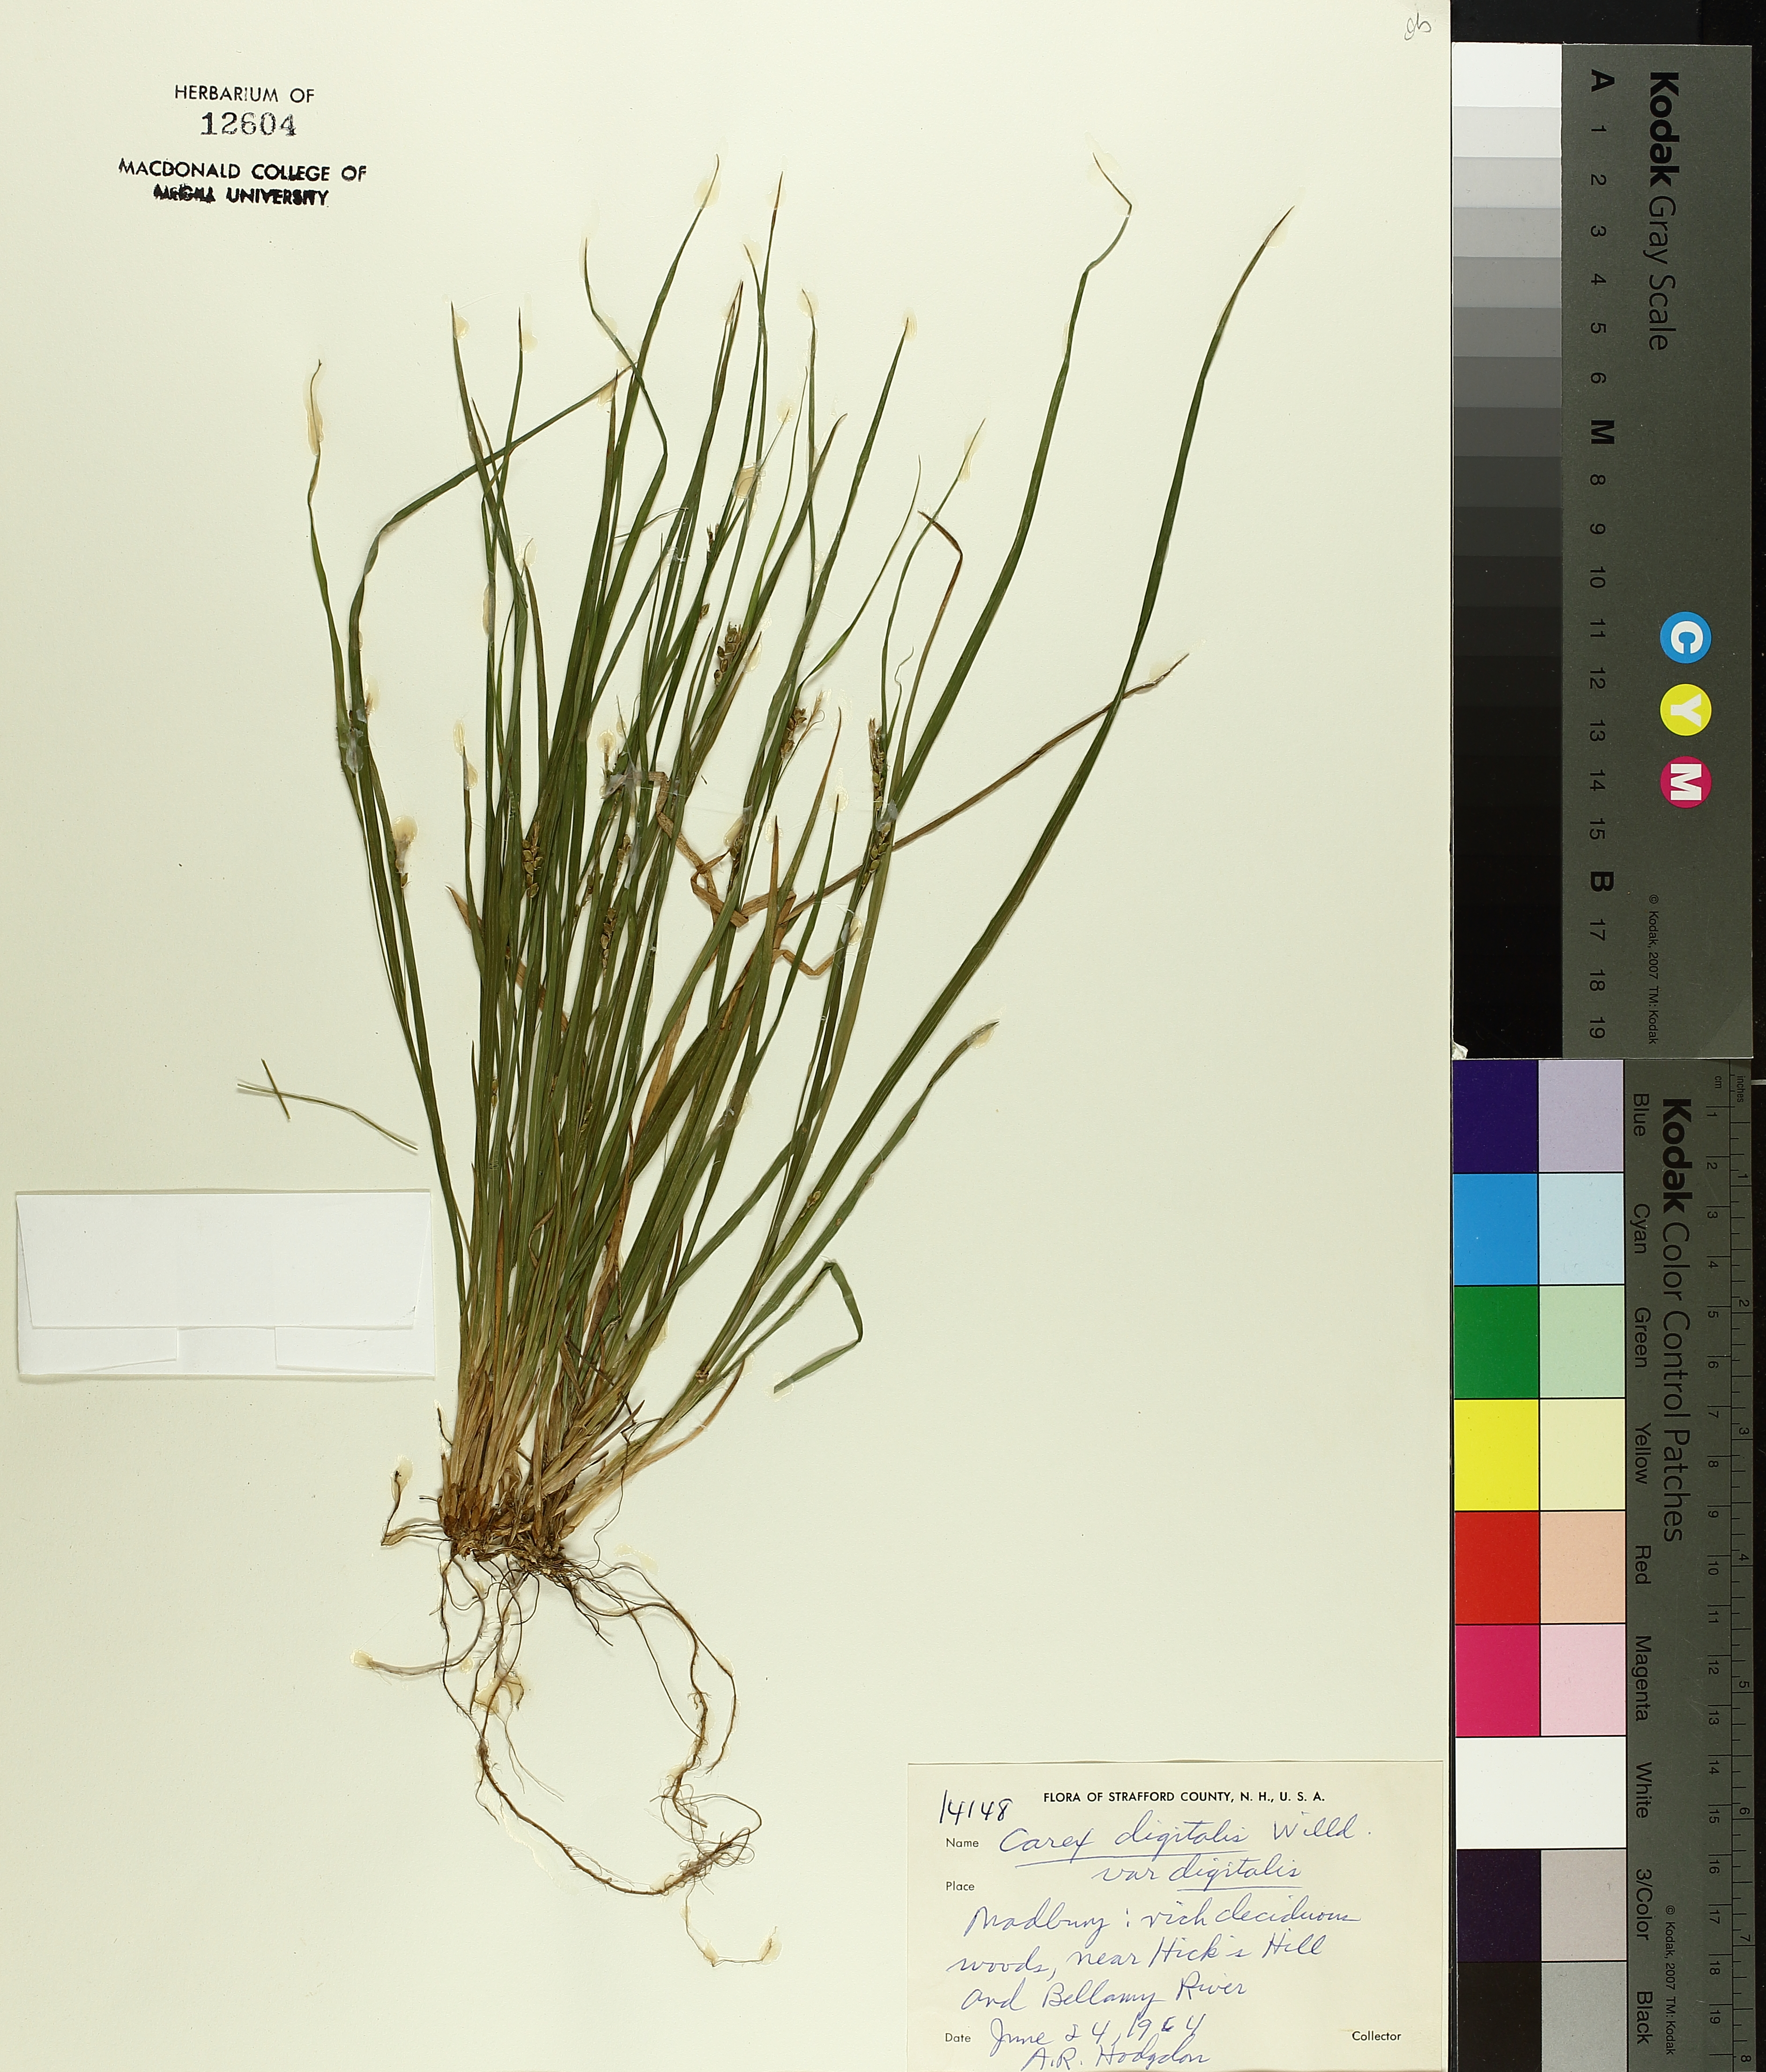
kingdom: Plantae
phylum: Tracheophyta
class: Liliopsida
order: Poales
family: Cyperaceae
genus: Carex
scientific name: Carex digitalis
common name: Slender wood sedge
